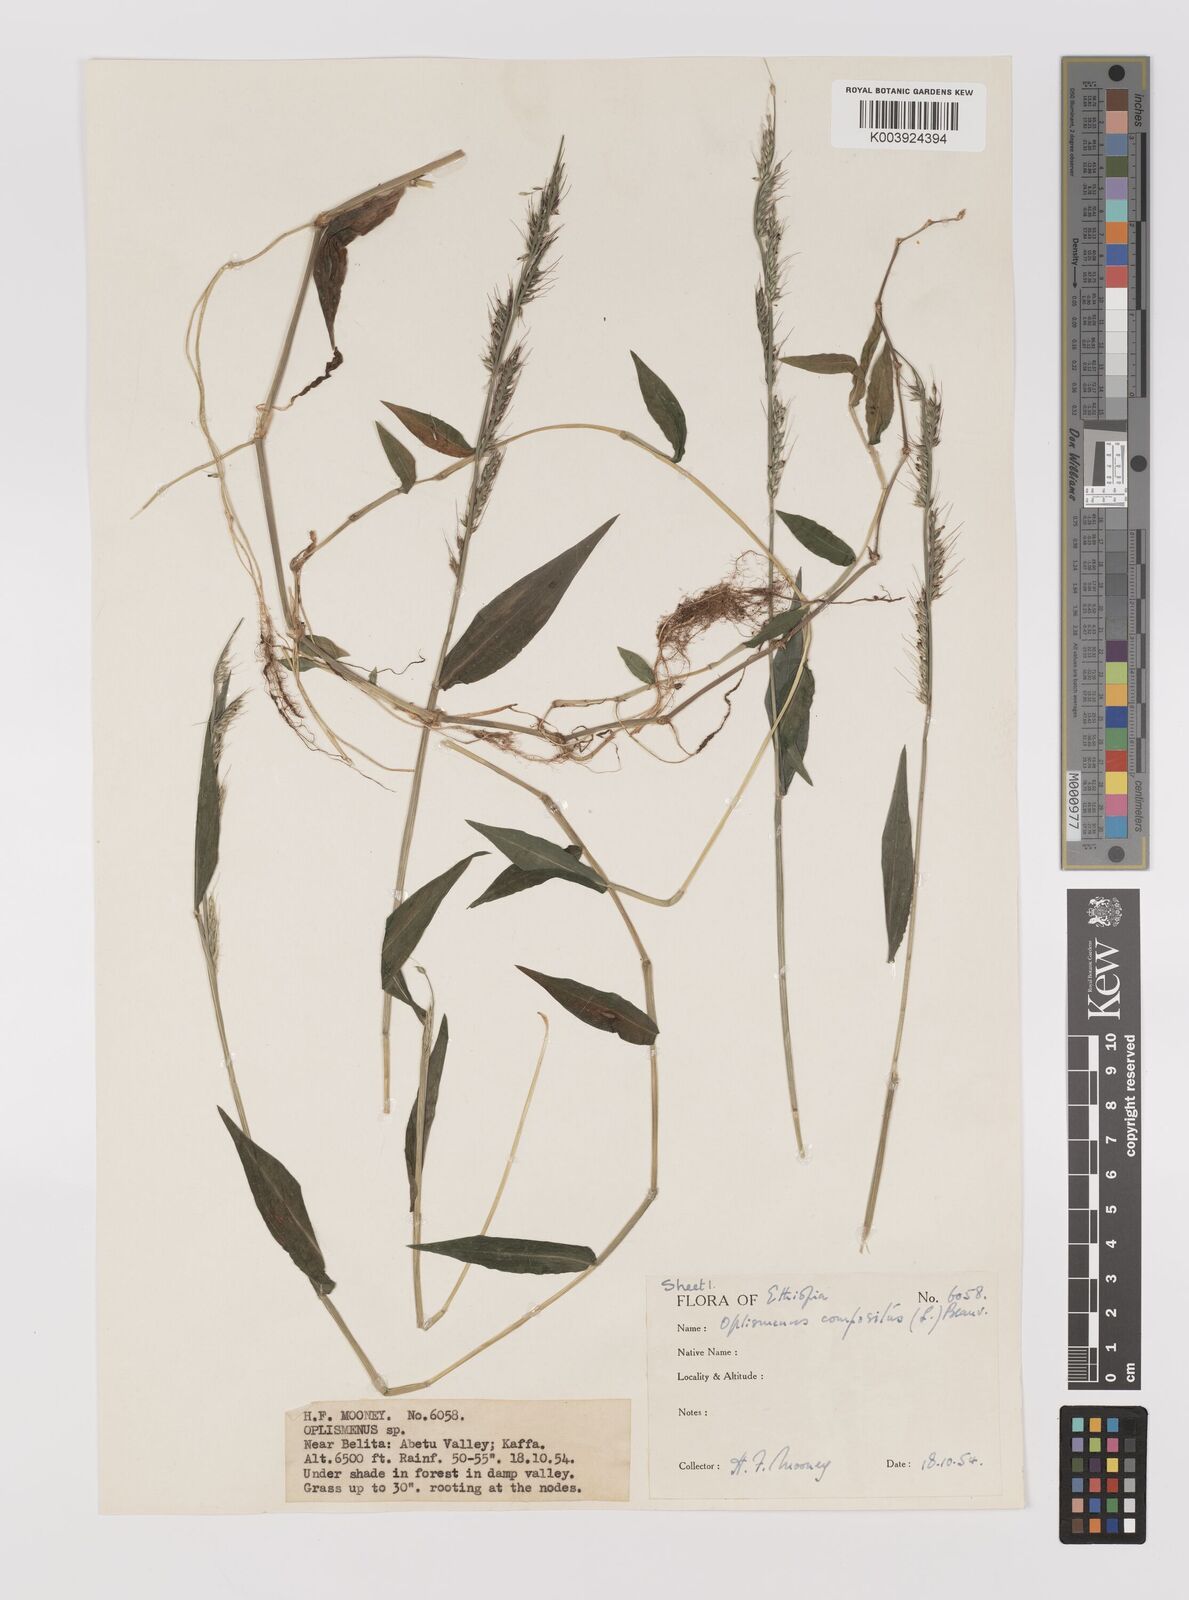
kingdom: Plantae
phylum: Tracheophyta
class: Liliopsida
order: Poales
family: Poaceae
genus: Oplismenus
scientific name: Oplismenus compositus
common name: Running mountain grass
